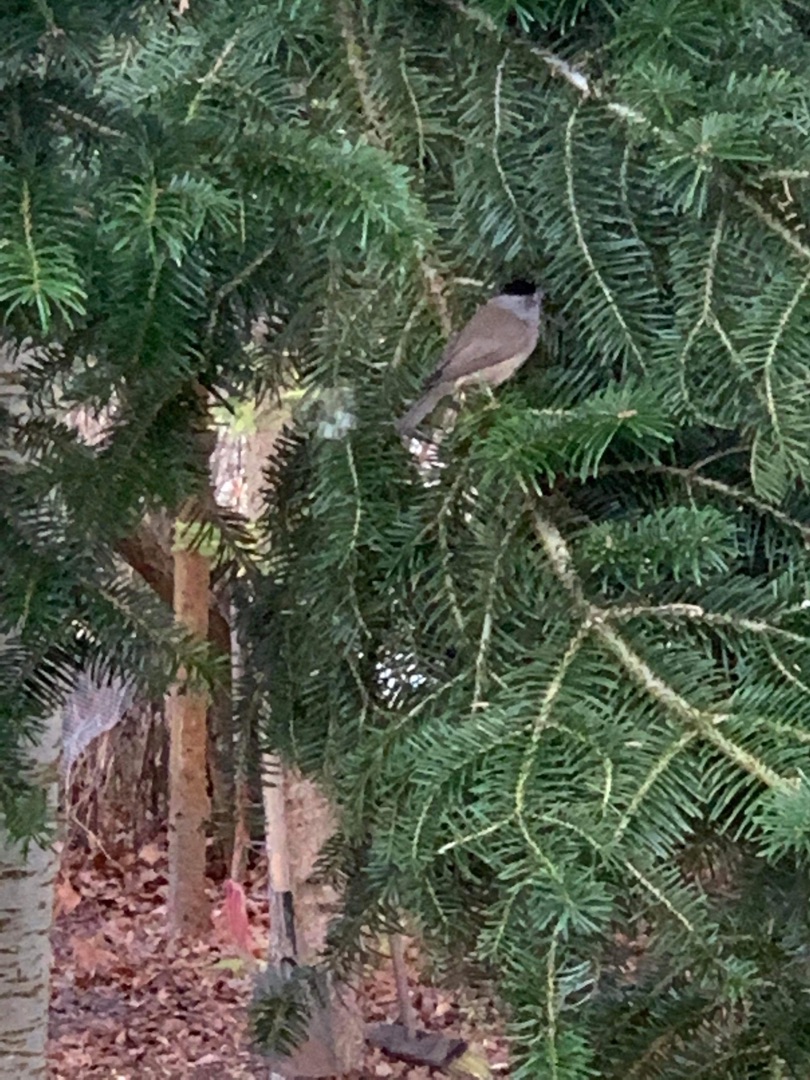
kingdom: Animalia
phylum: Chordata
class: Aves
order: Passeriformes
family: Sylviidae
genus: Sylvia
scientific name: Sylvia atricapilla
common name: Munk
